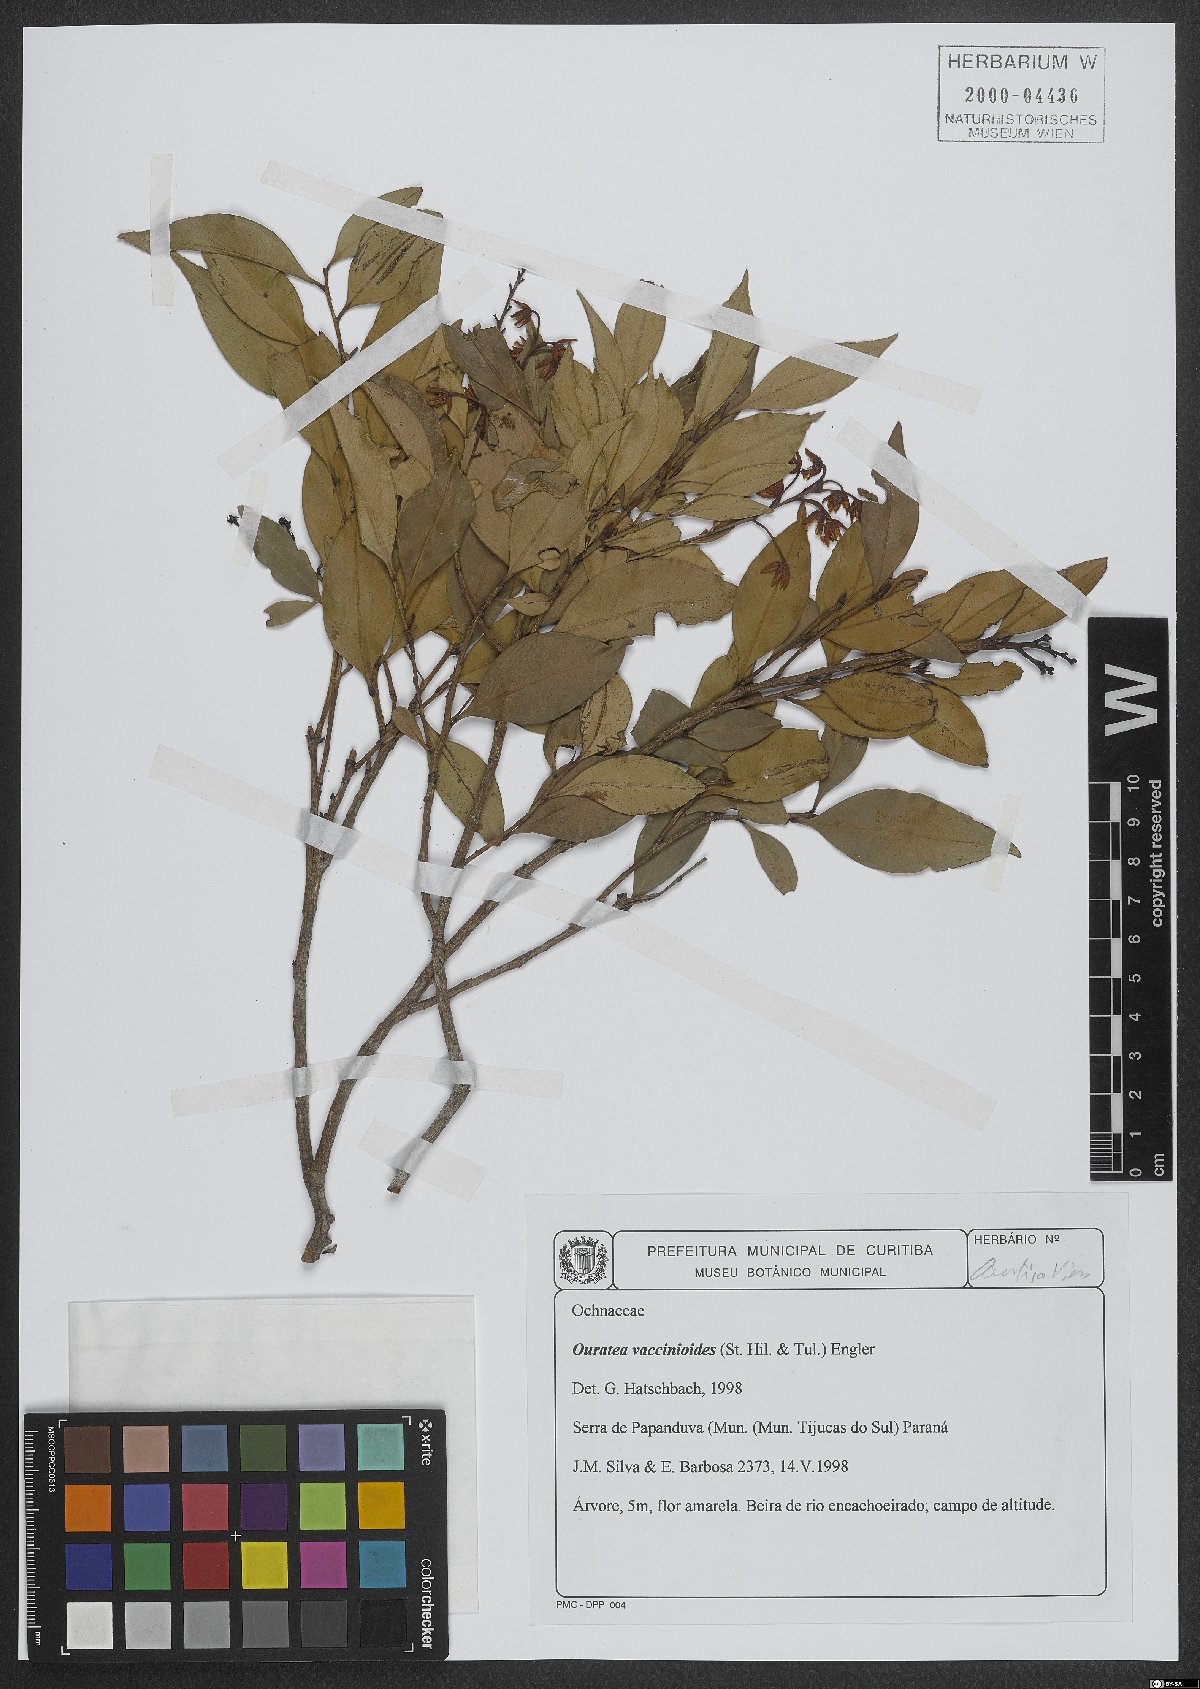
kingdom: Plantae
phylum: Tracheophyta
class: Magnoliopsida
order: Malpighiales
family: Ochnaceae
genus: Ouratea
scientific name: Ouratea vaccinioides
